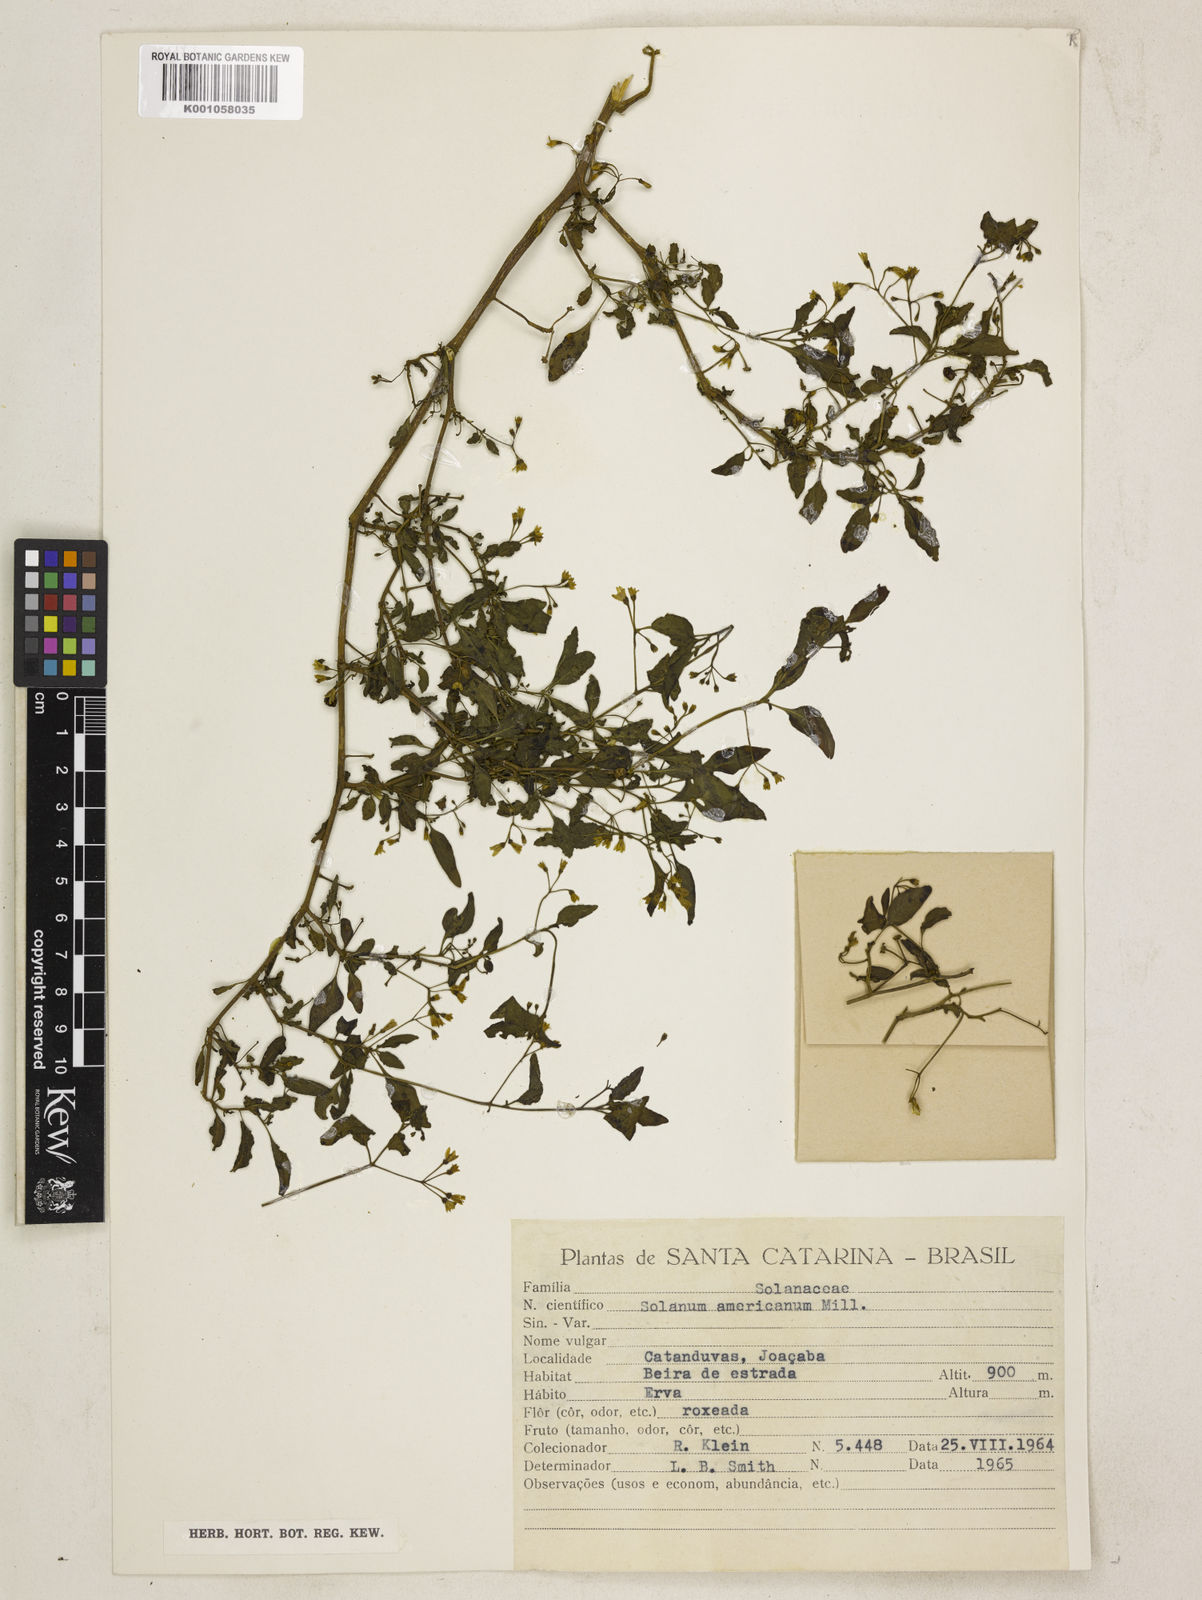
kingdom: Plantae
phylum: Tracheophyta
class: Magnoliopsida
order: Solanales
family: Solanaceae
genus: Solanum
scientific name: Solanum americanum
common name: American black nightshade
